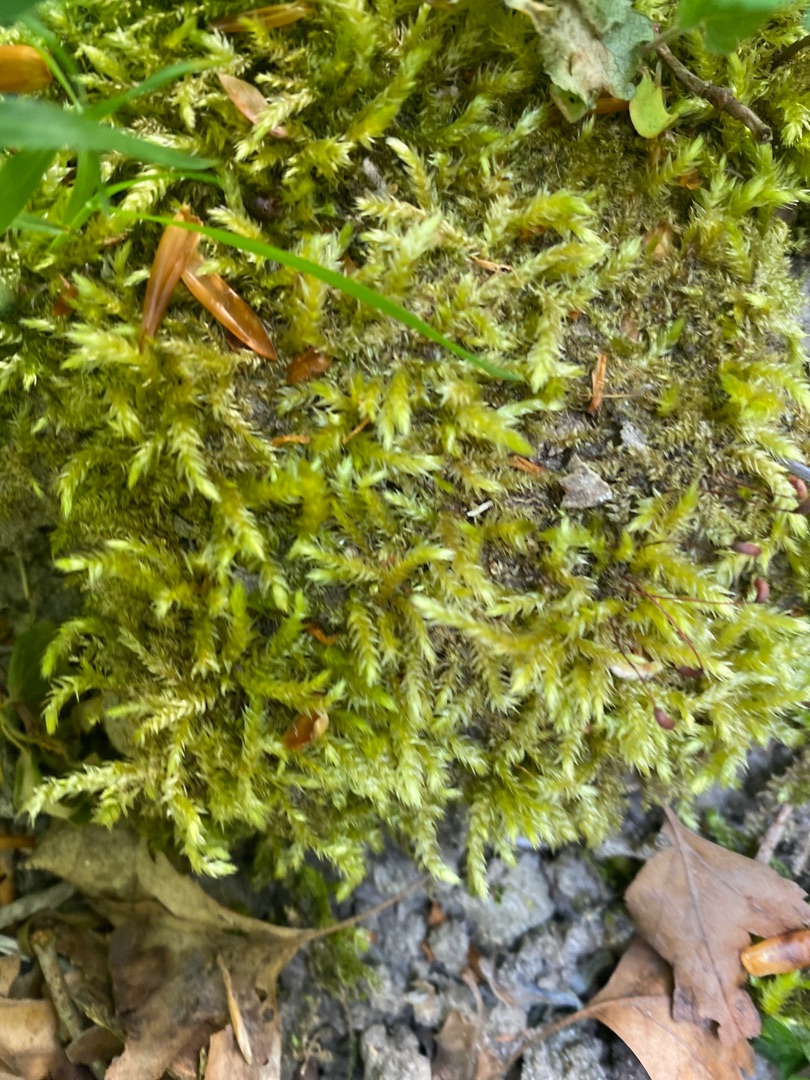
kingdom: Plantae
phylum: Bryophyta
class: Bryopsida
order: Hypnales
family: Brachytheciaceae
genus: Brachythecium
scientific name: Brachythecium rutabulum
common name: Almindelig kortkapsel
